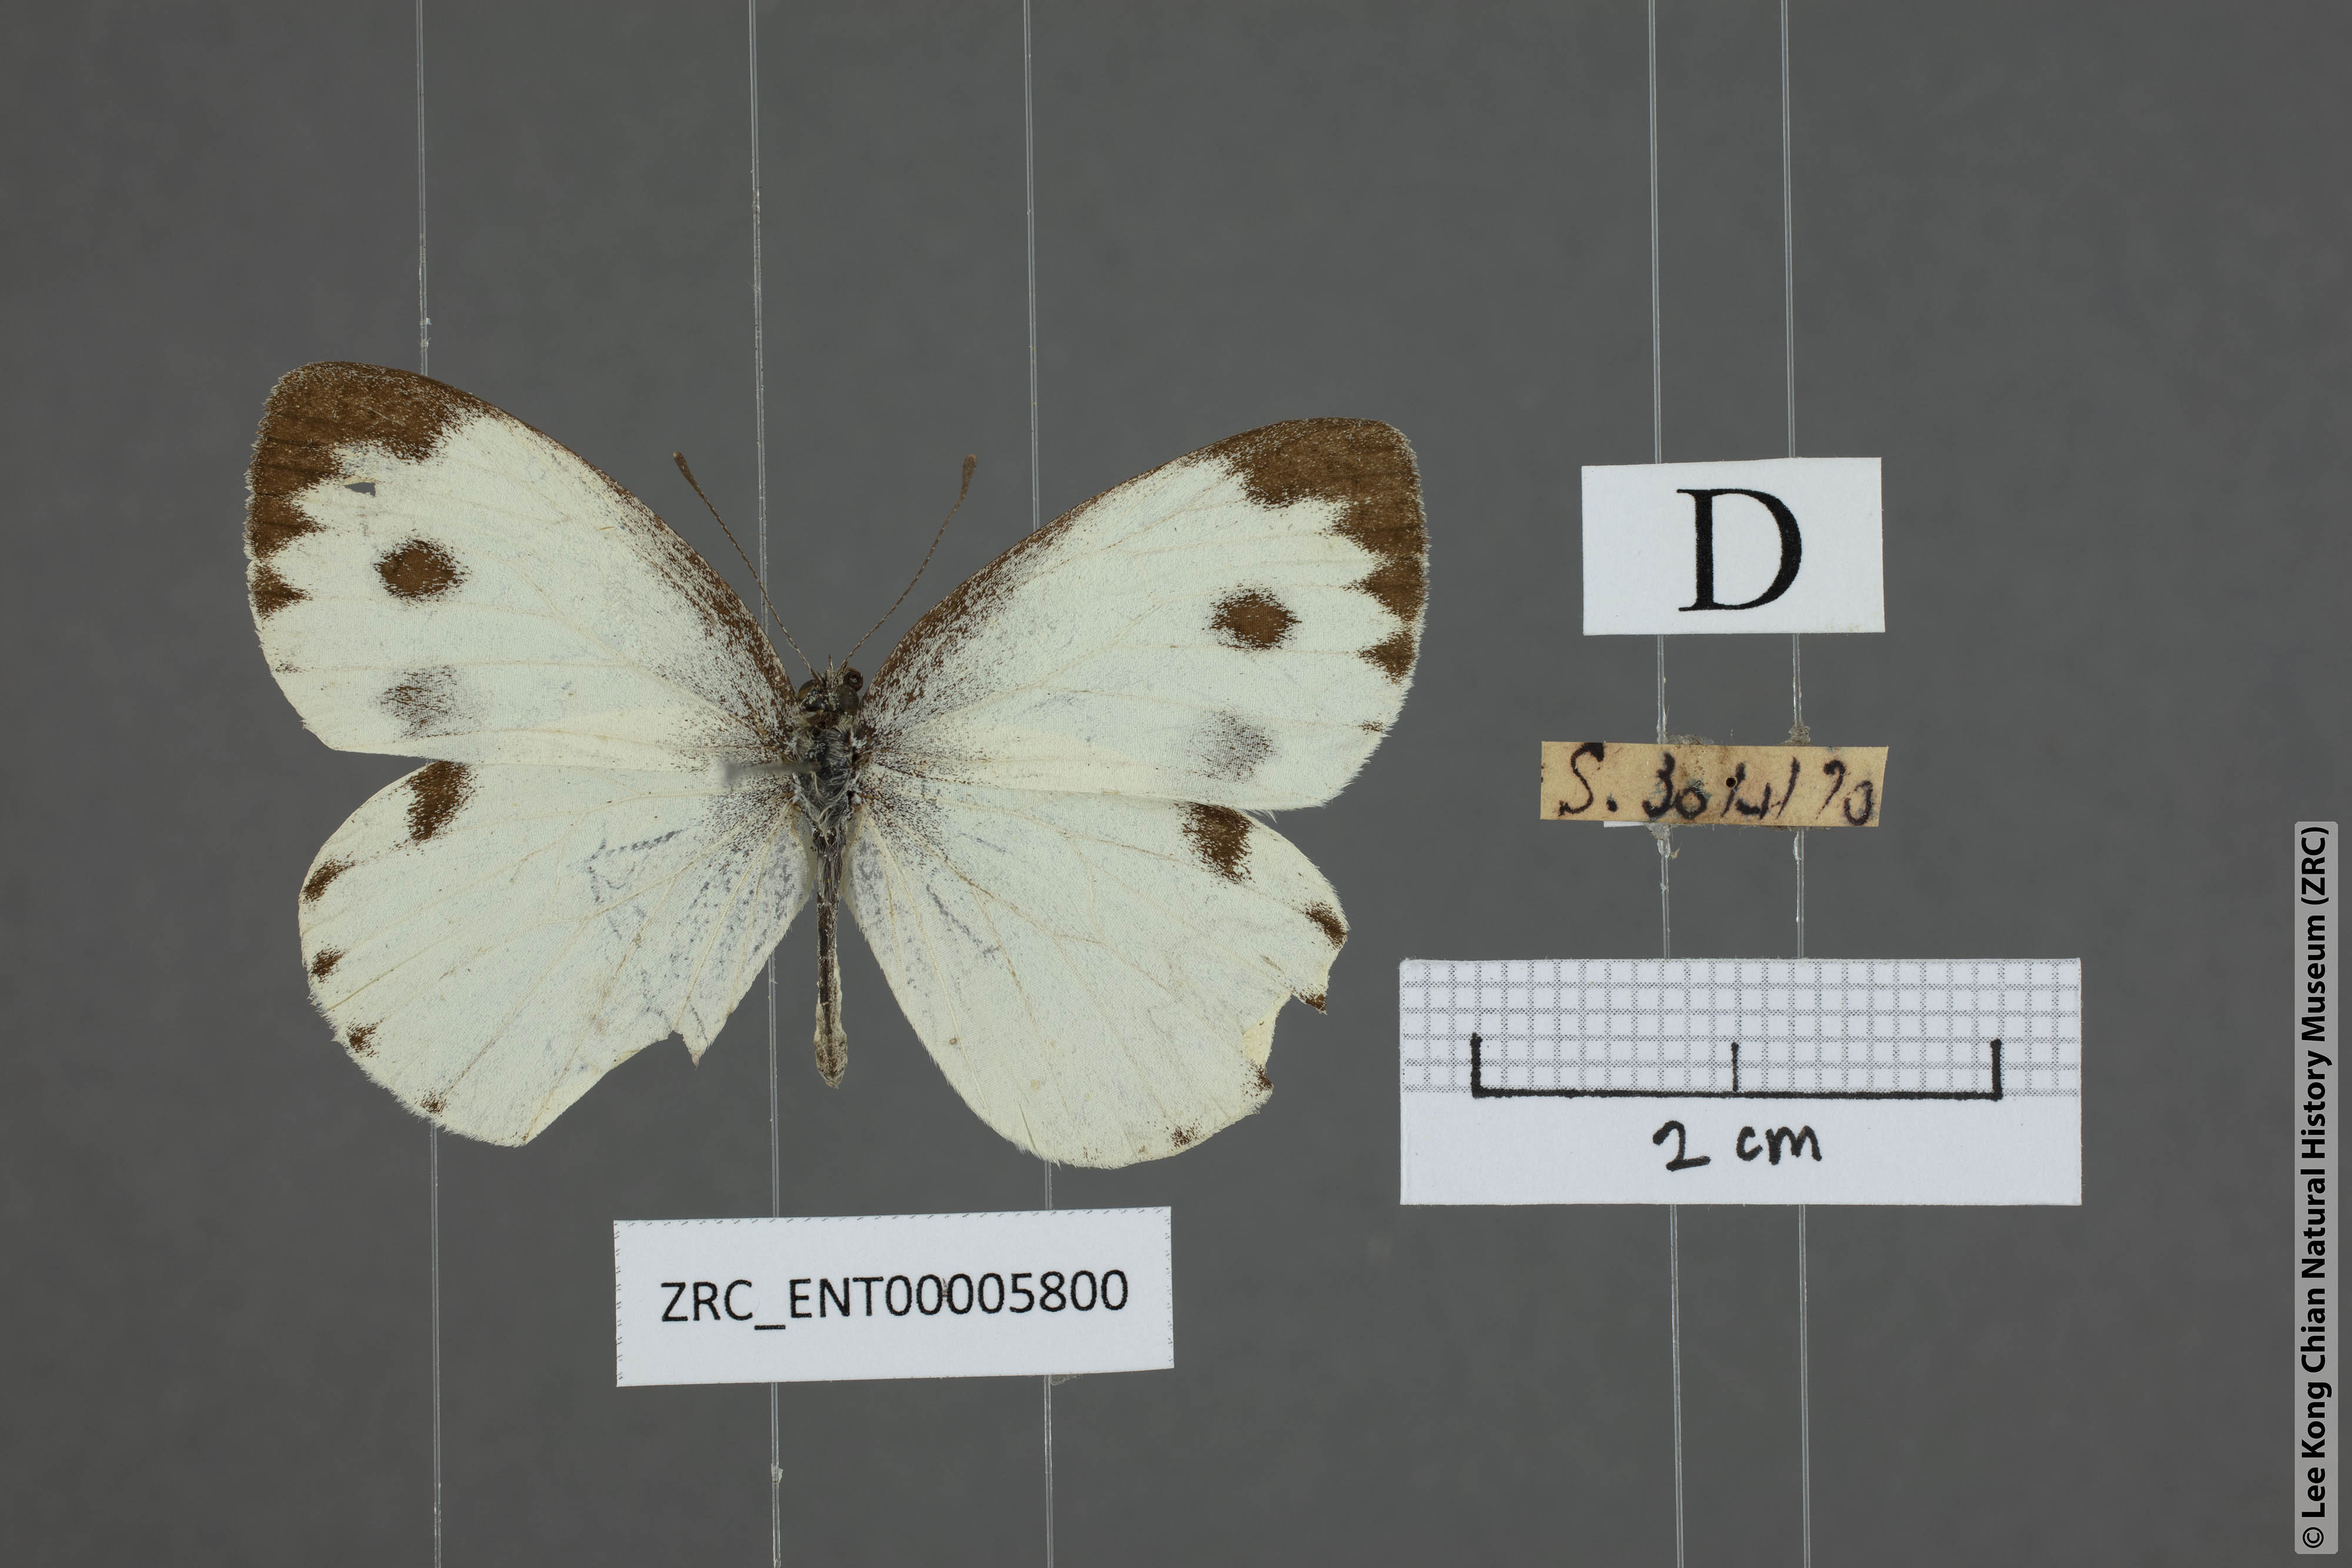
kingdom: Animalia
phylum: Arthropoda
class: Insecta
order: Lepidoptera
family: Pieridae
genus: Pieris
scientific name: Pieris canidia
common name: Indian cabbage white
